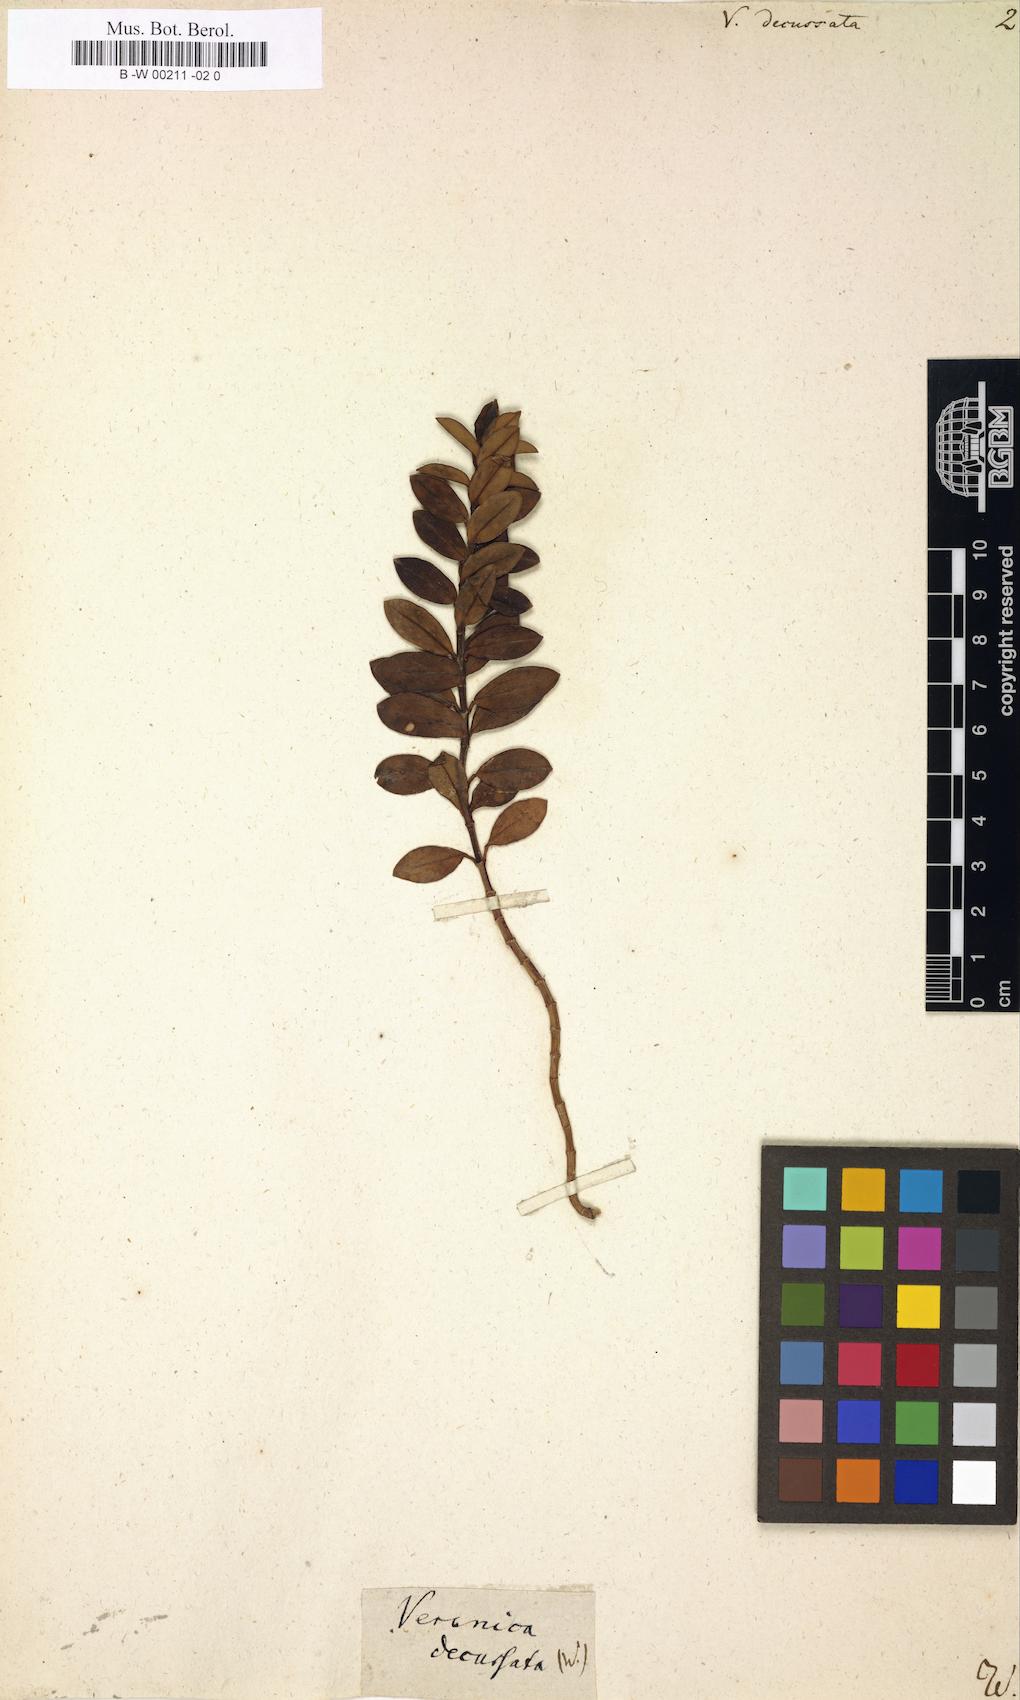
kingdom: Plantae
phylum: Tracheophyta
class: Magnoliopsida
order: Lamiales
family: Plantaginaceae
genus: Veronica
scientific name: Veronica elliptica
